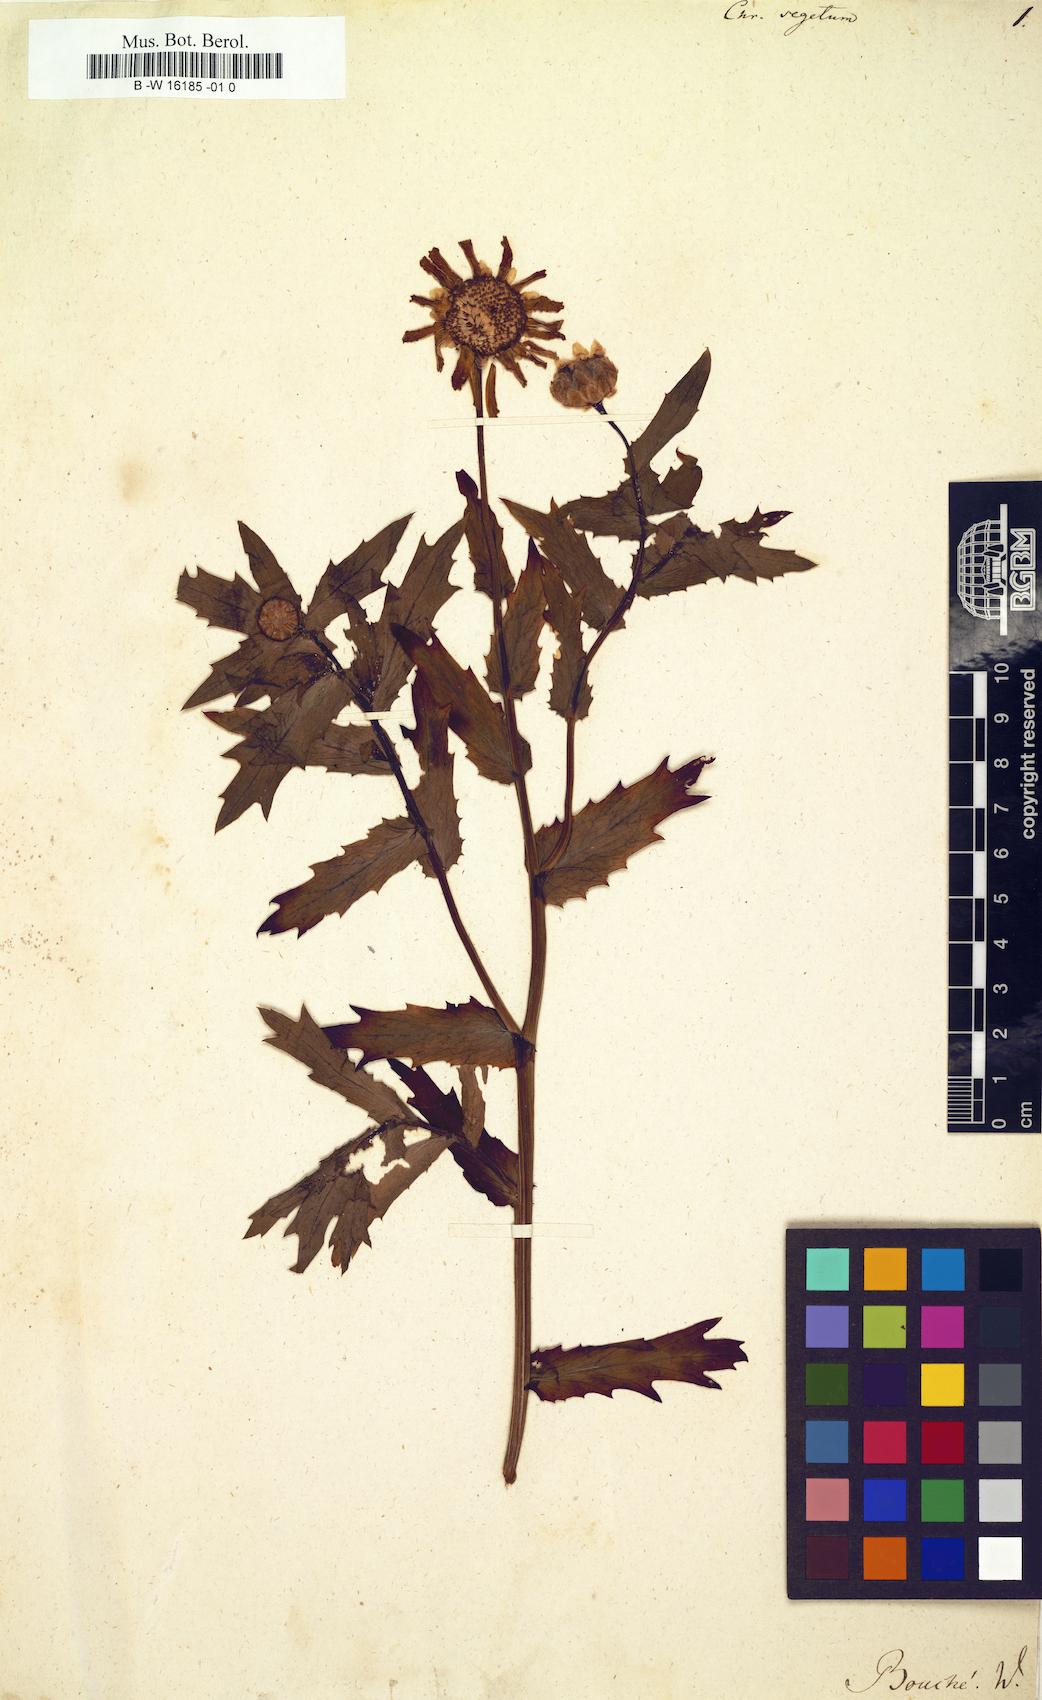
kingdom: Plantae
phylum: Tracheophyta
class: Magnoliopsida
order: Asterales
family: Asteraceae
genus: Chrysanthemum
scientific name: Chrysanthemum segetum
